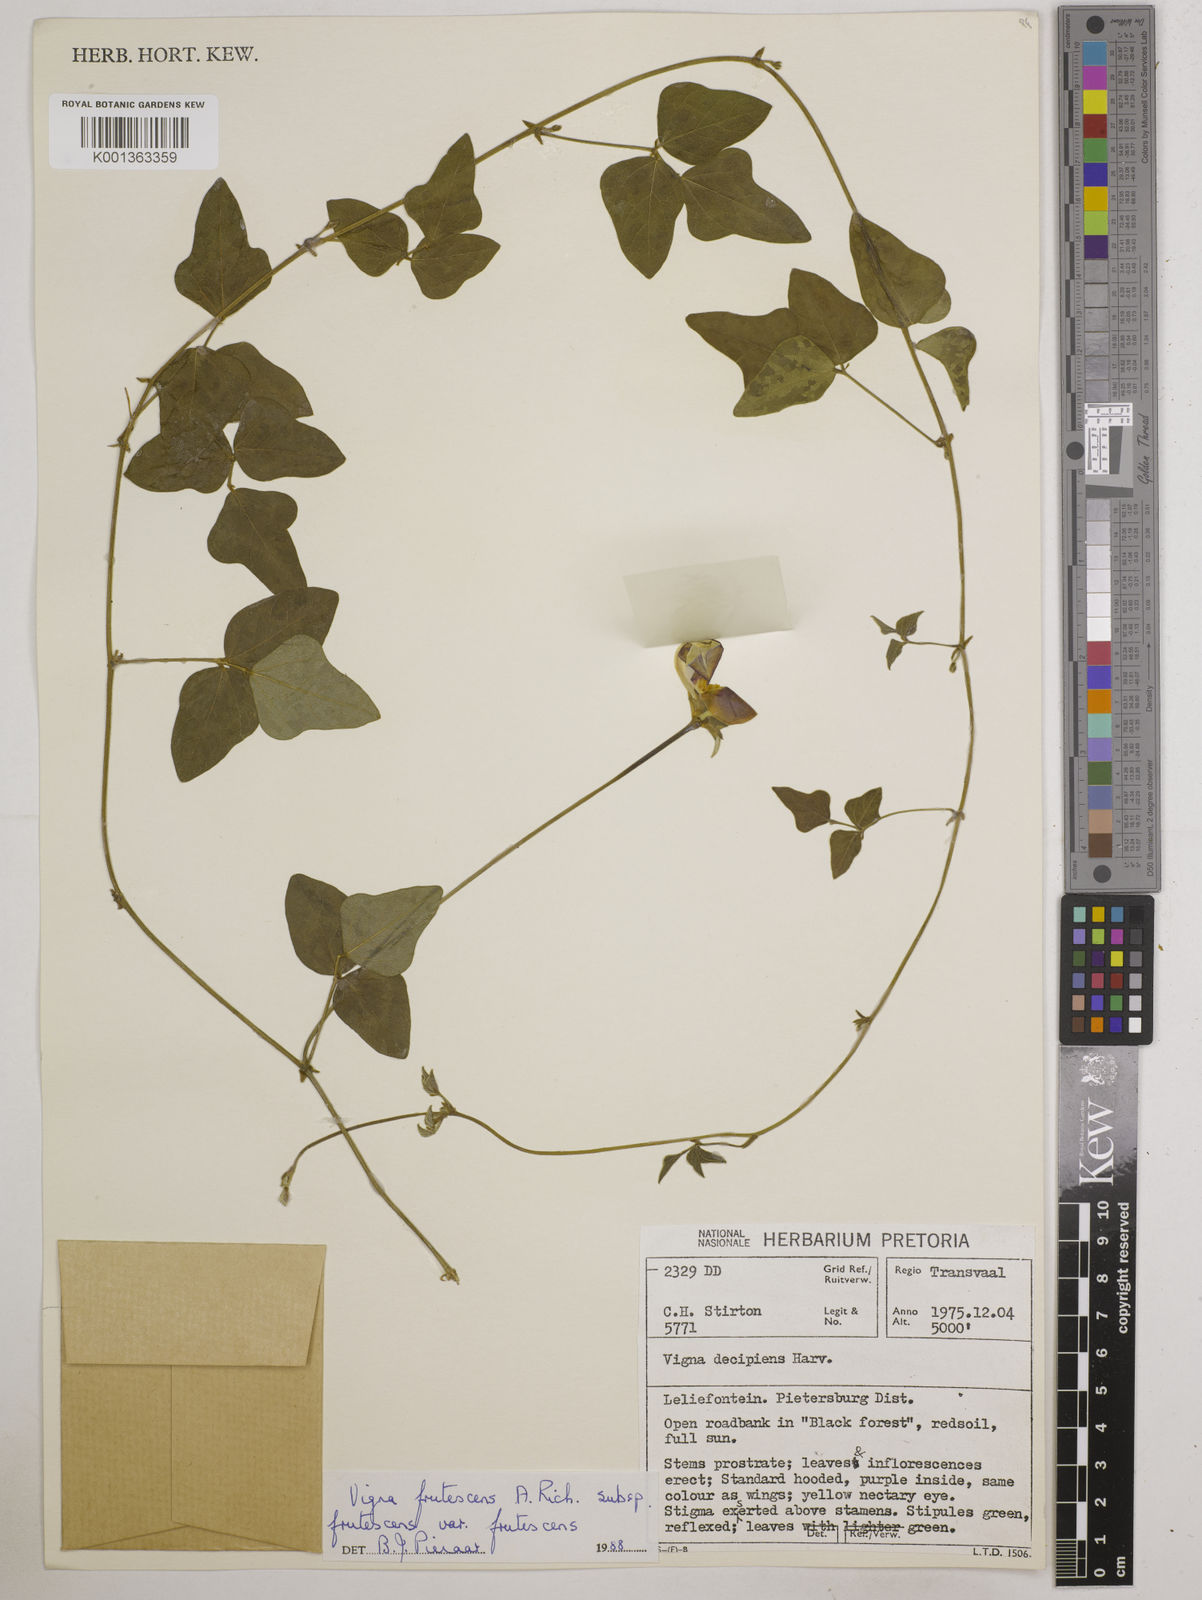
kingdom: Plantae
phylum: Tracheophyta
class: Magnoliopsida
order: Fabales
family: Fabaceae
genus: Vigna
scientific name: Vigna frutescens
